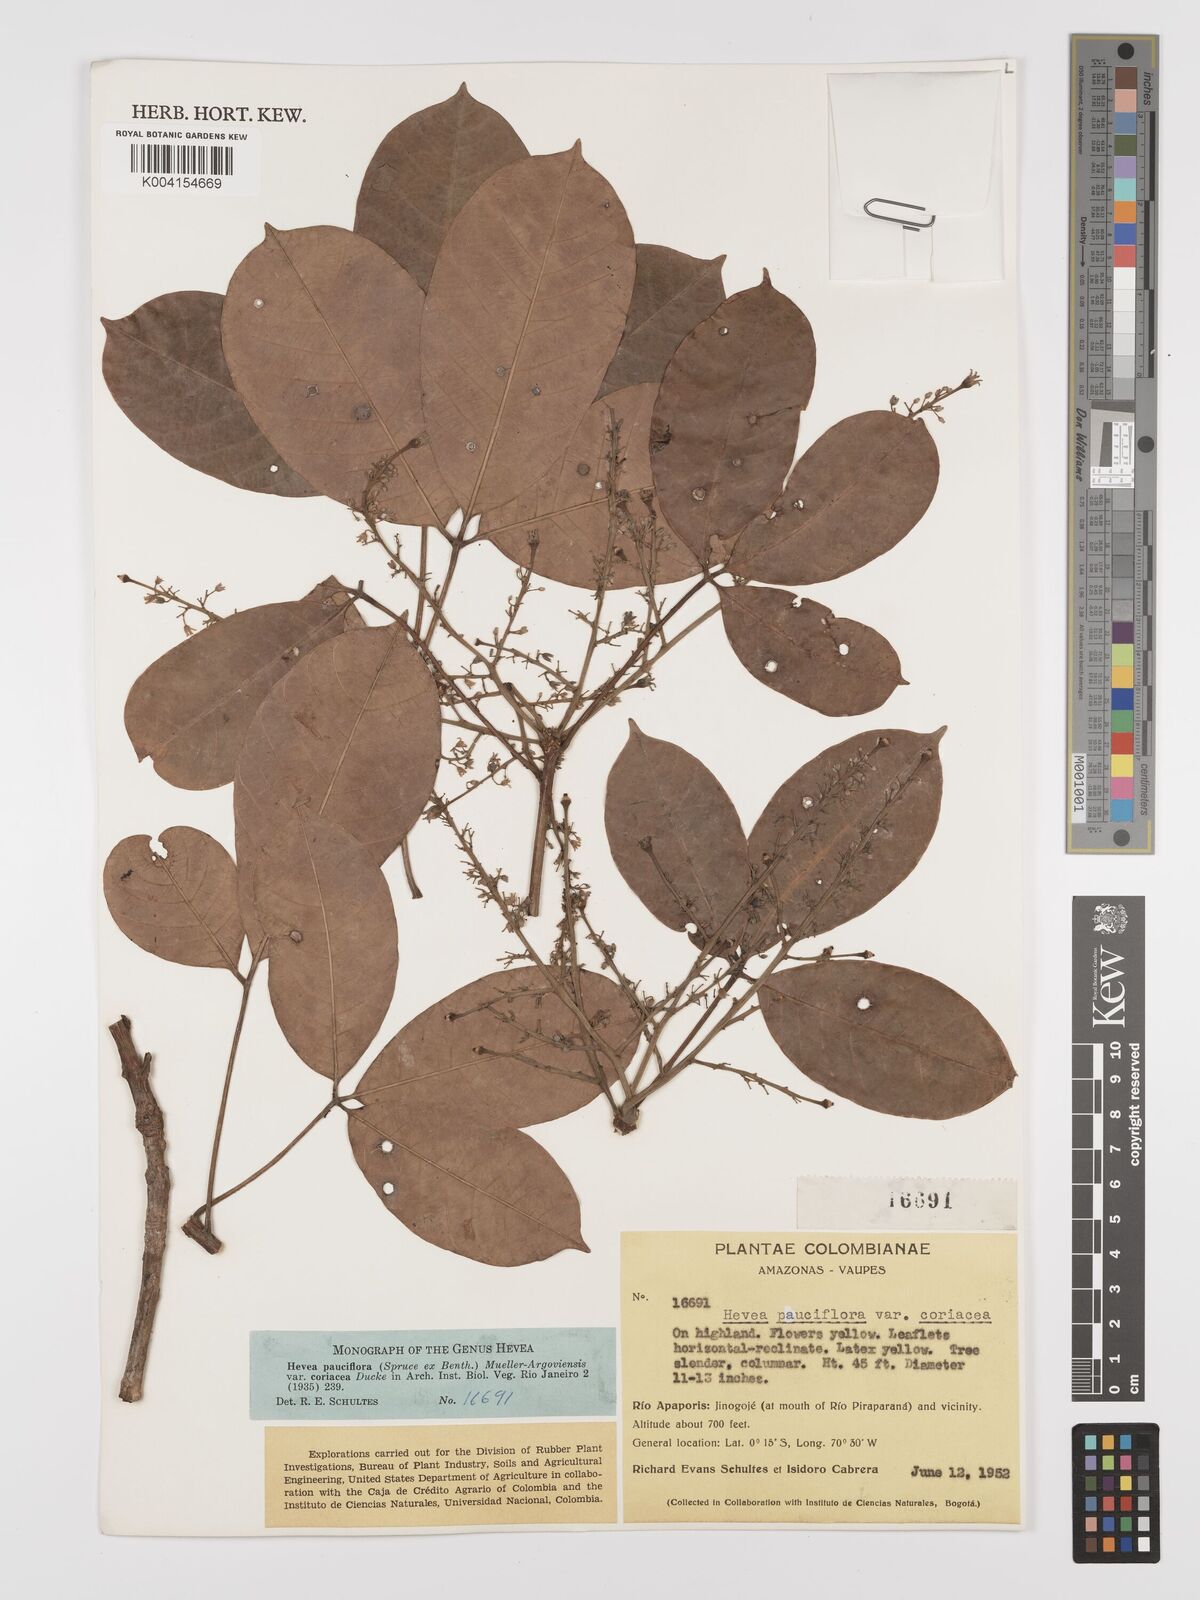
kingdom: Plantae
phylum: Tracheophyta
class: Magnoliopsida
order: Malpighiales
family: Euphorbiaceae
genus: Hevea
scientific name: Hevea pauciflora
